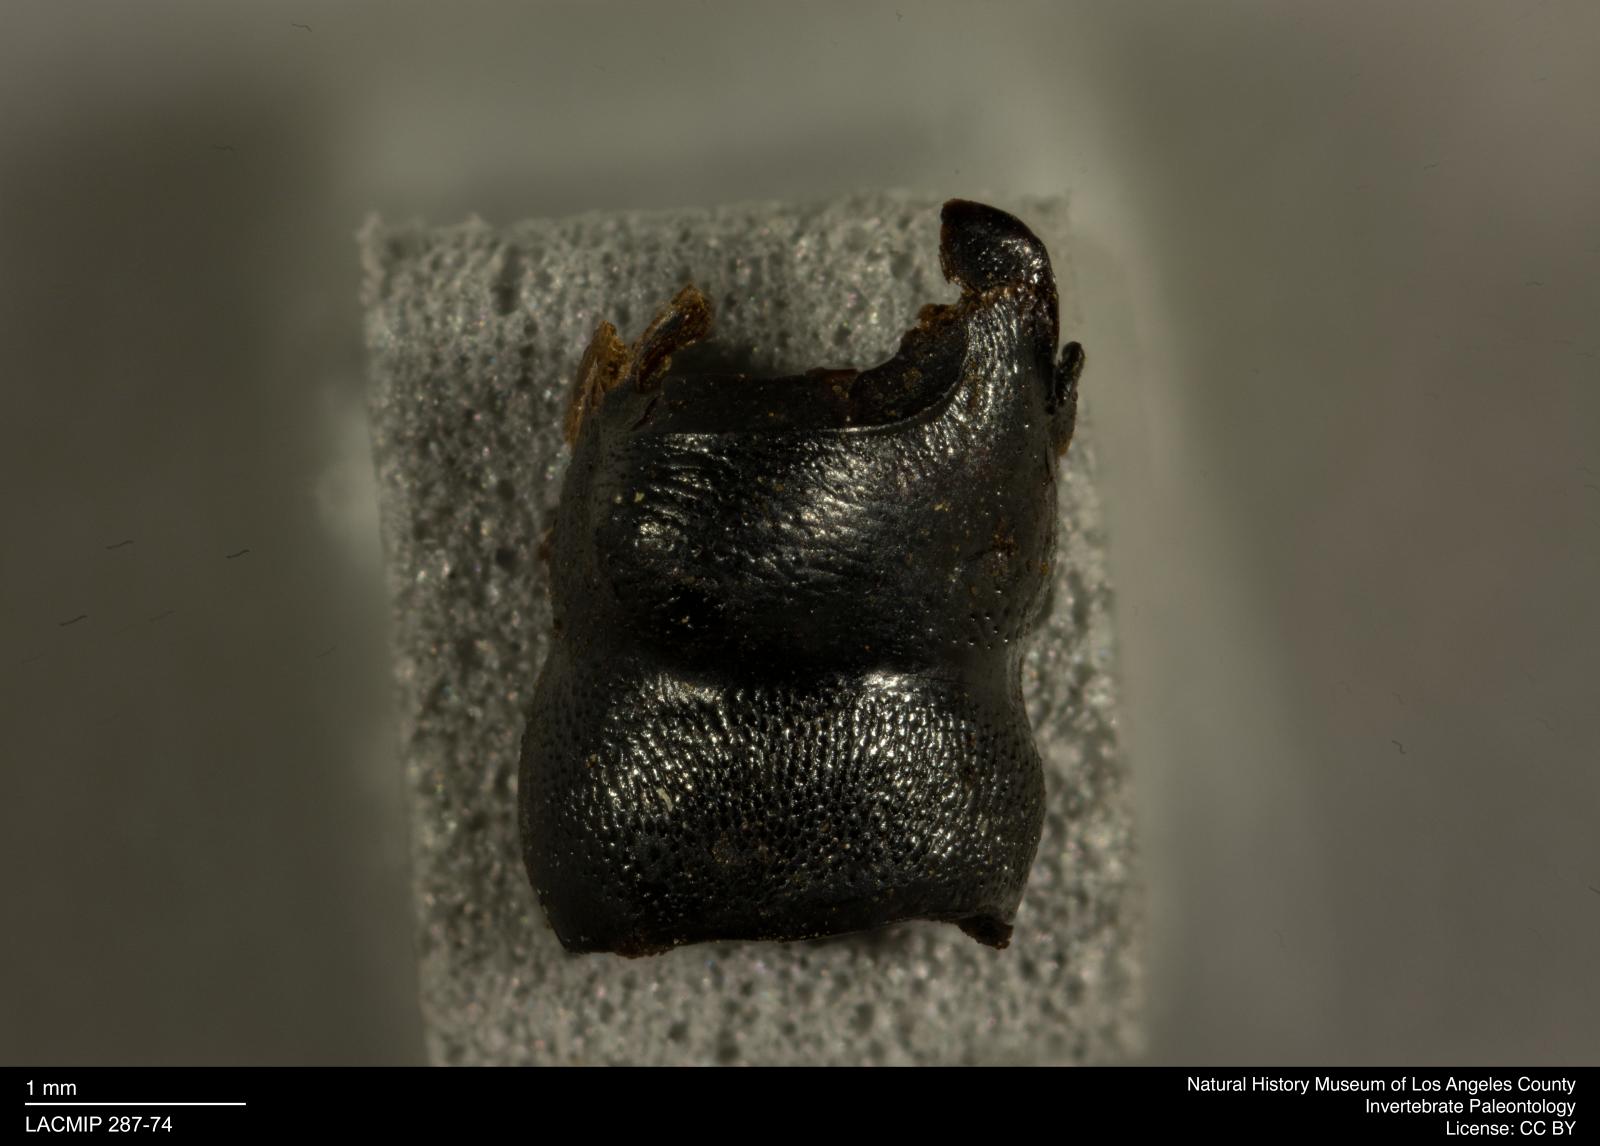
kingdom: Animalia
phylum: Arthropoda
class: Insecta
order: Coleoptera
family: Staphylinidae
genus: Nicrophorus
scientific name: Nicrophorus marginatus
